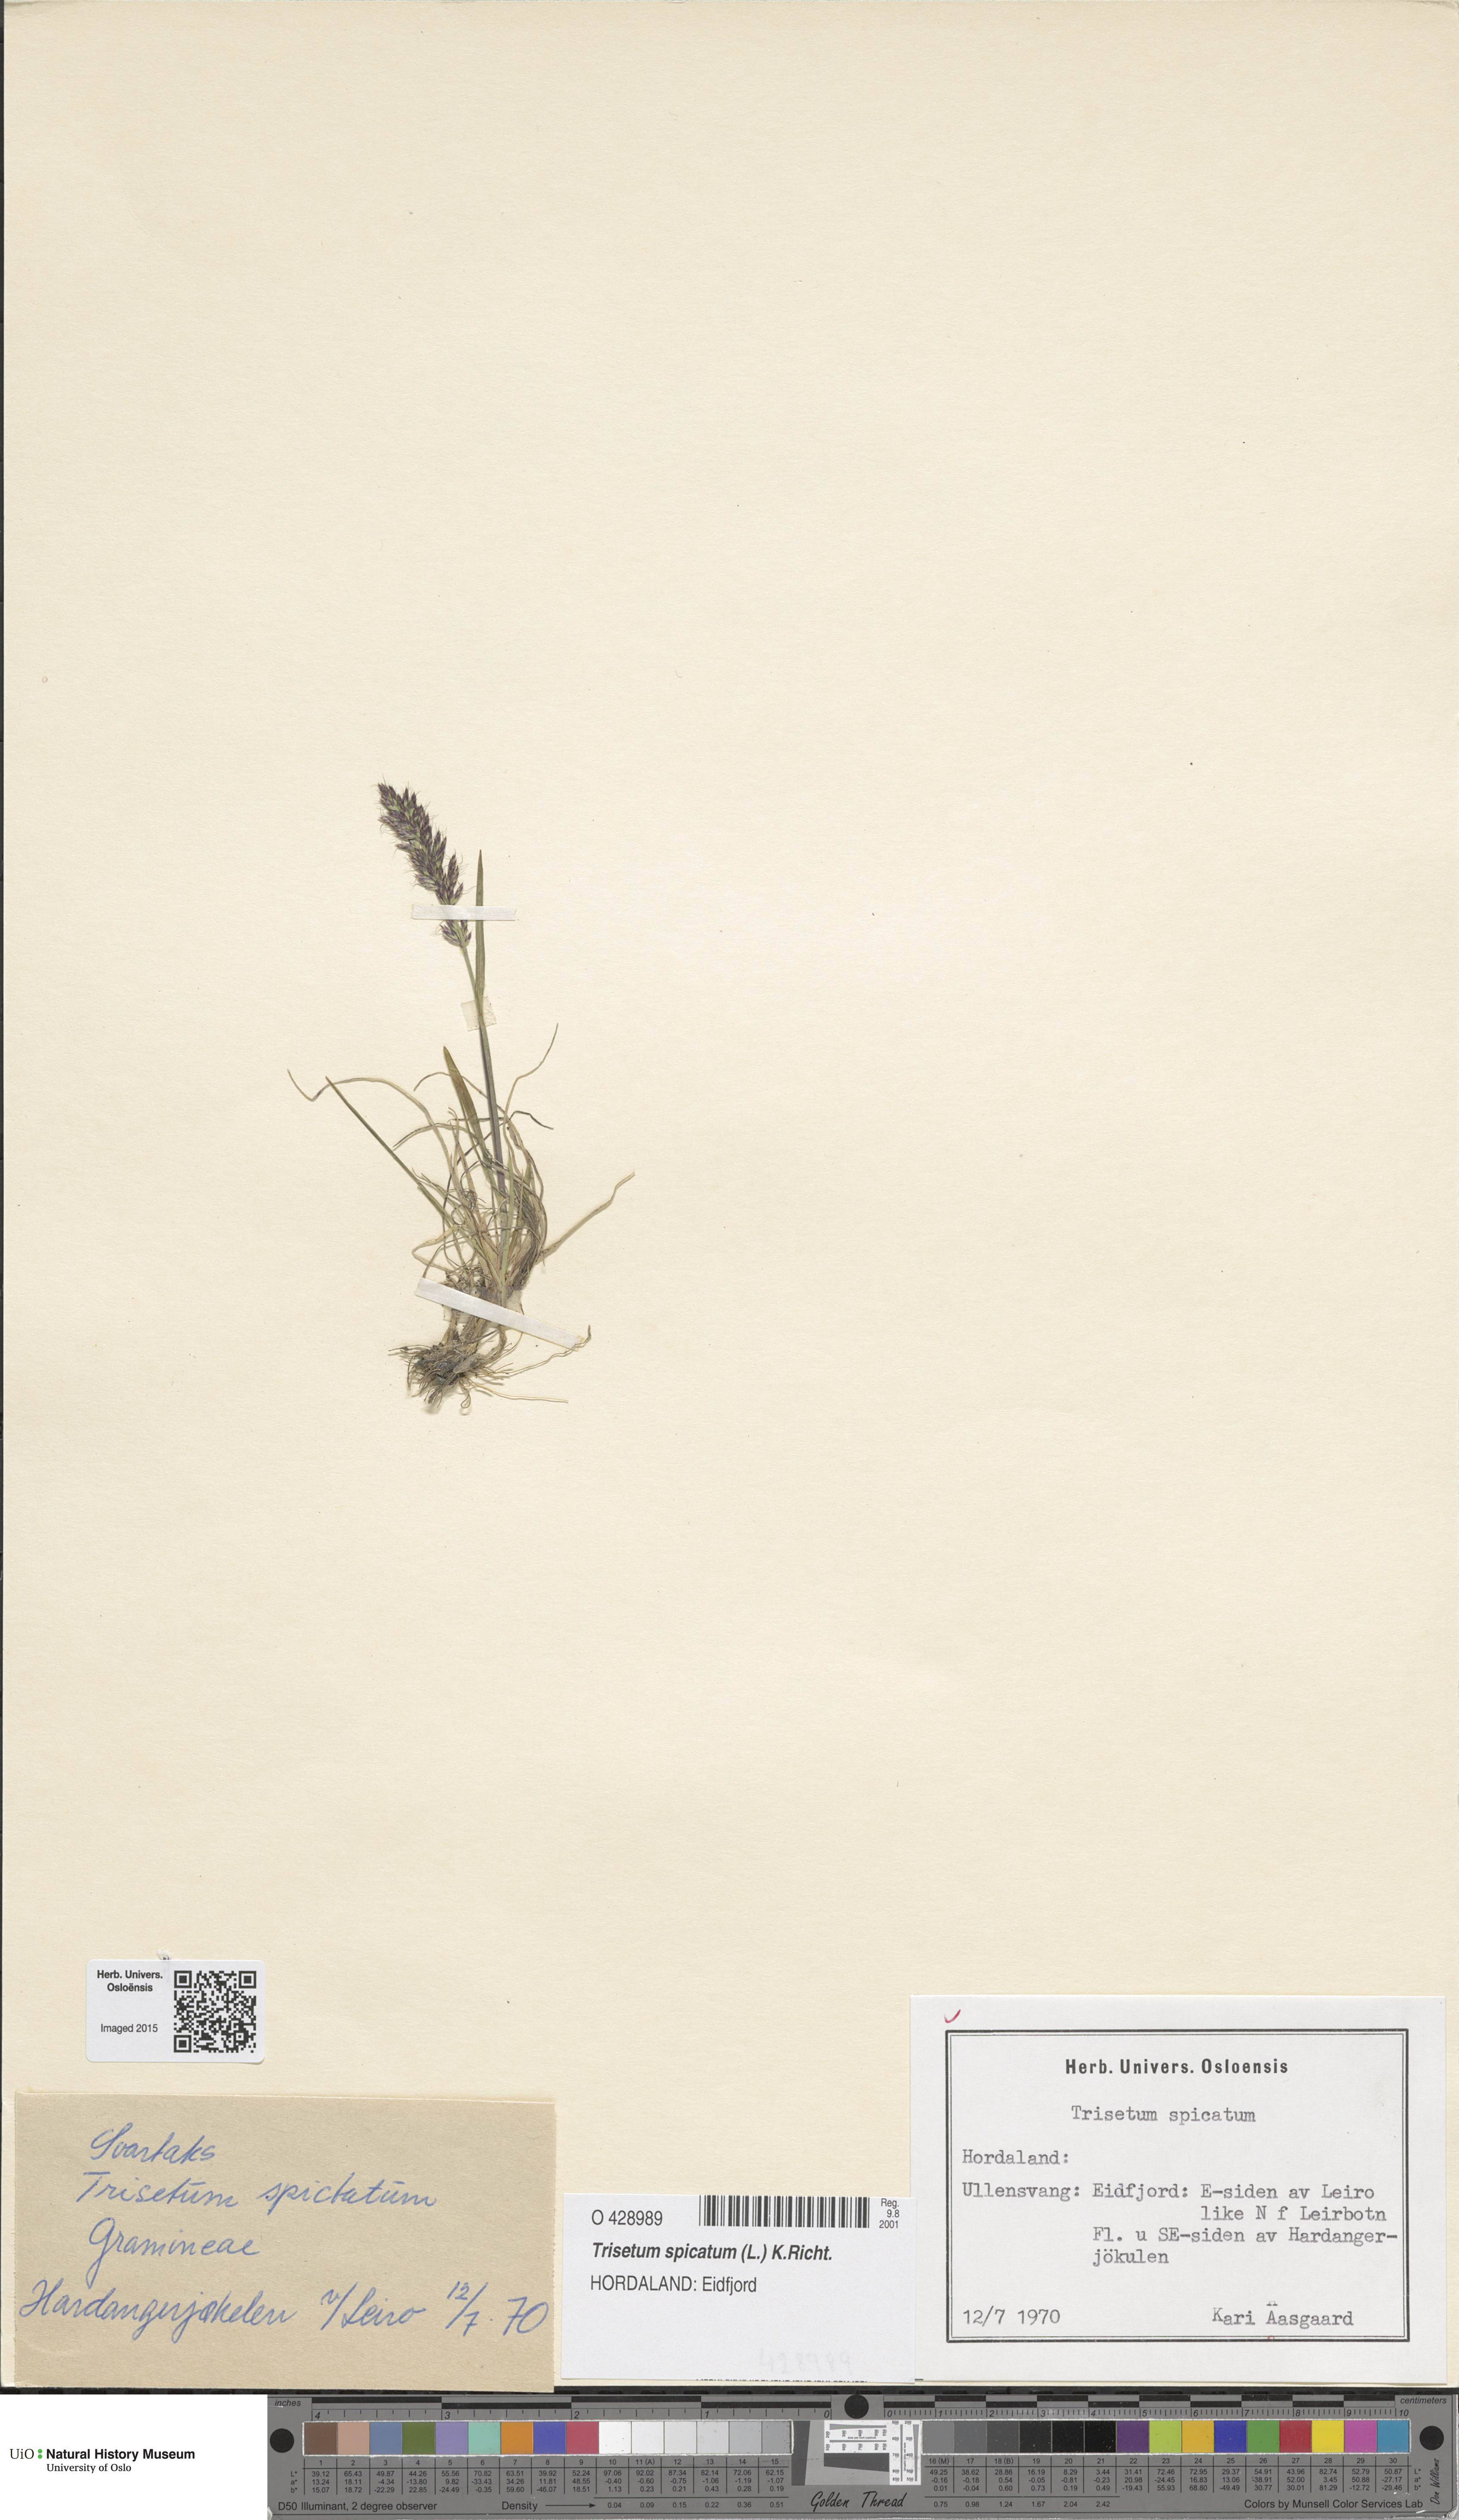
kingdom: Plantae
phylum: Tracheophyta
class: Liliopsida
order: Poales
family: Poaceae
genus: Koeleria
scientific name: Koeleria spicata
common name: Mountain trisetum
